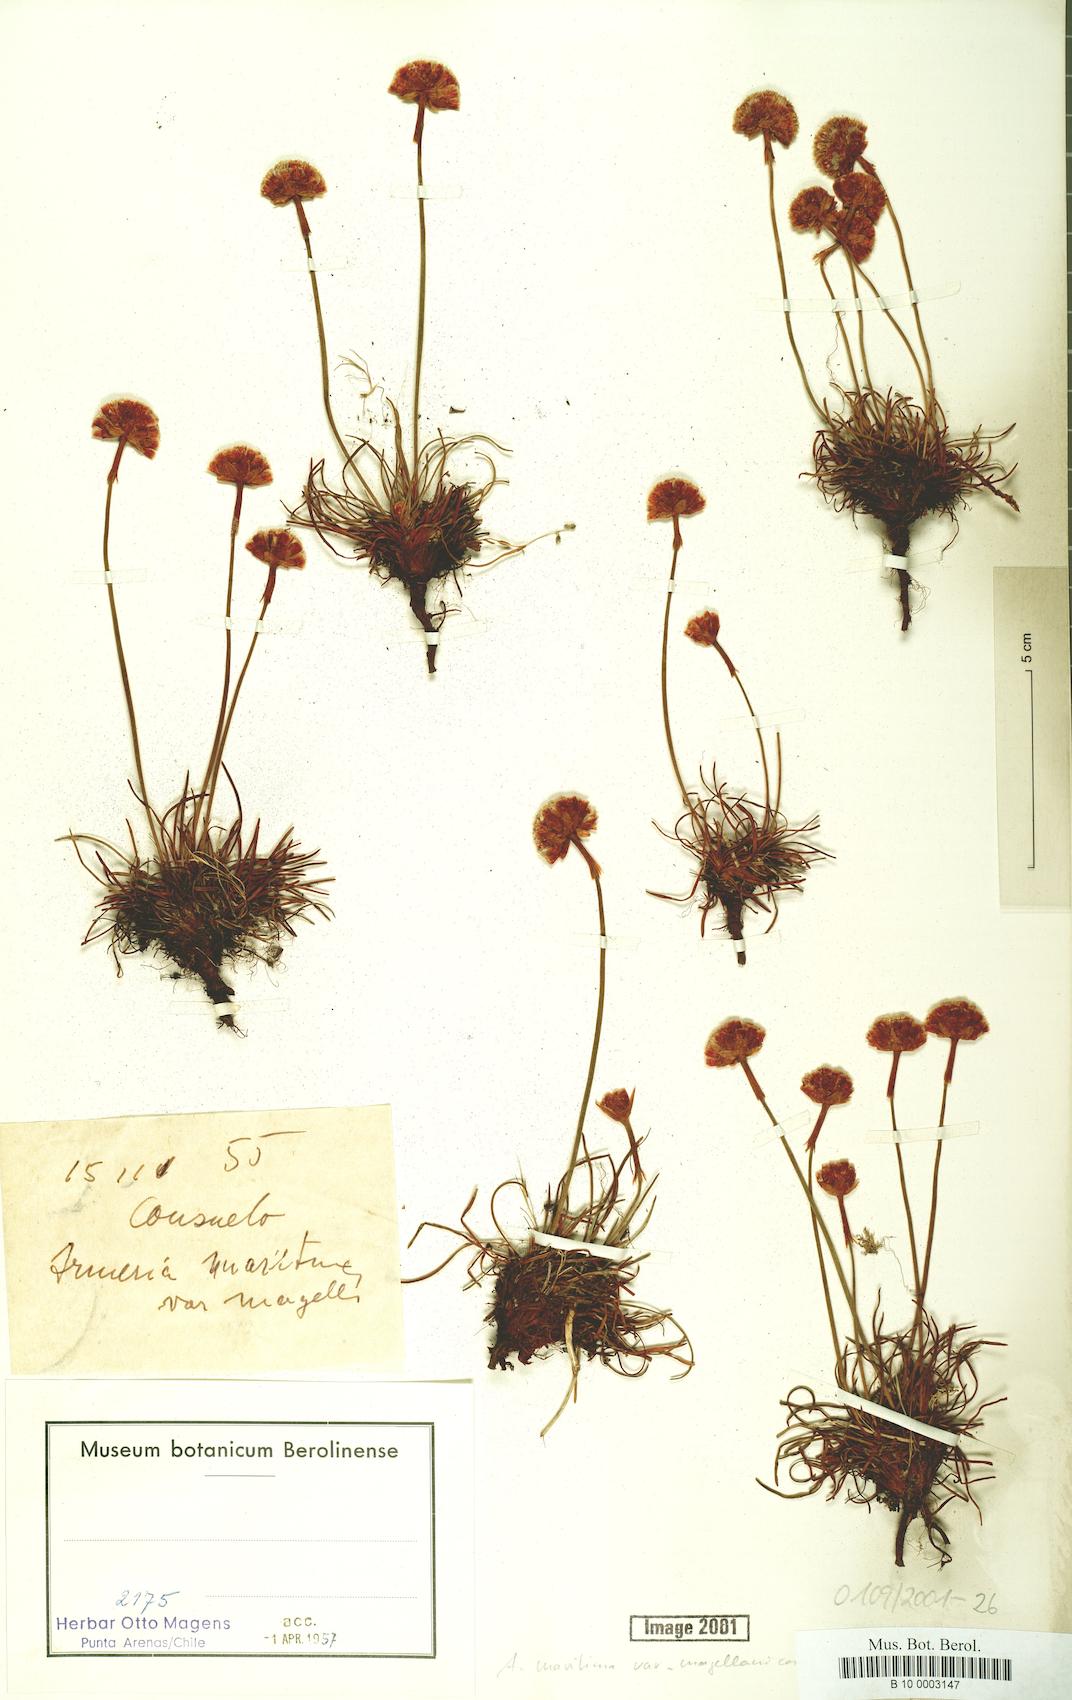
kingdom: Plantae
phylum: Tracheophyta
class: Magnoliopsida
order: Caryophyllales
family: Plumbaginaceae
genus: Armeria
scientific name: Armeria curvifolia
